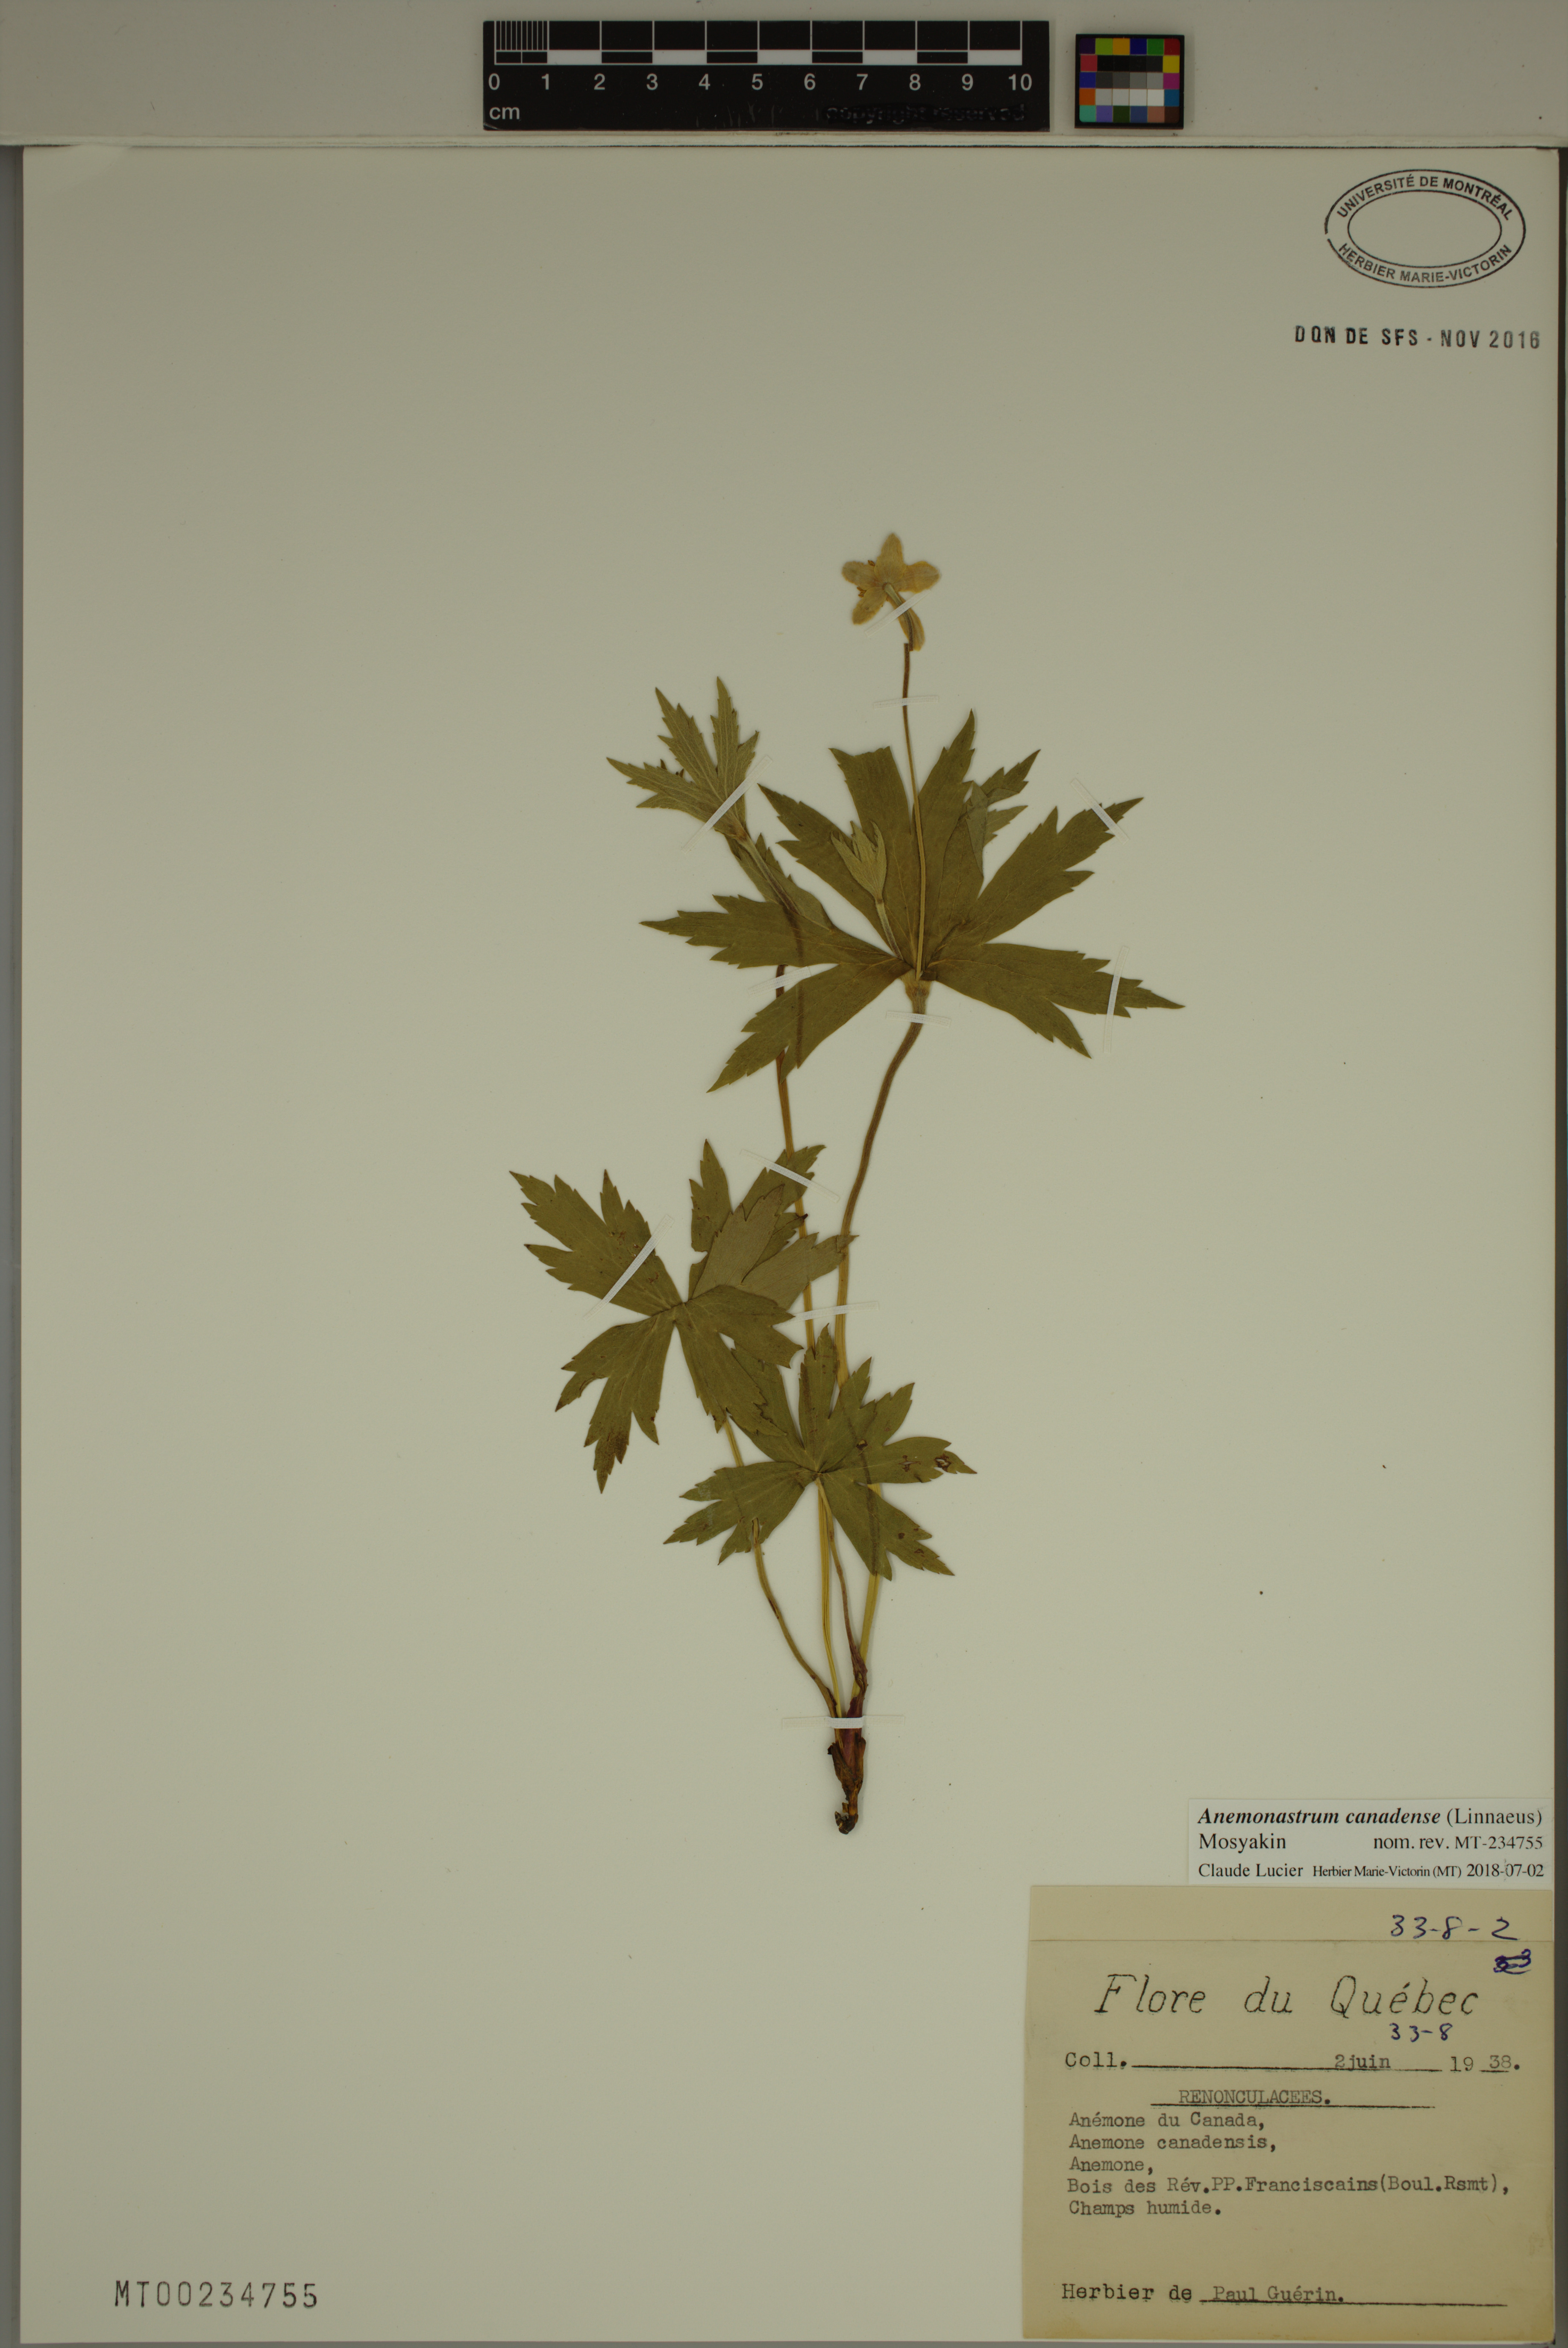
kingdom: Plantae
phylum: Tracheophyta
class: Magnoliopsida
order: Ranunculales
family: Ranunculaceae
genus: Anemonastrum
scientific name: Anemonastrum canadense
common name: Canada anemone
